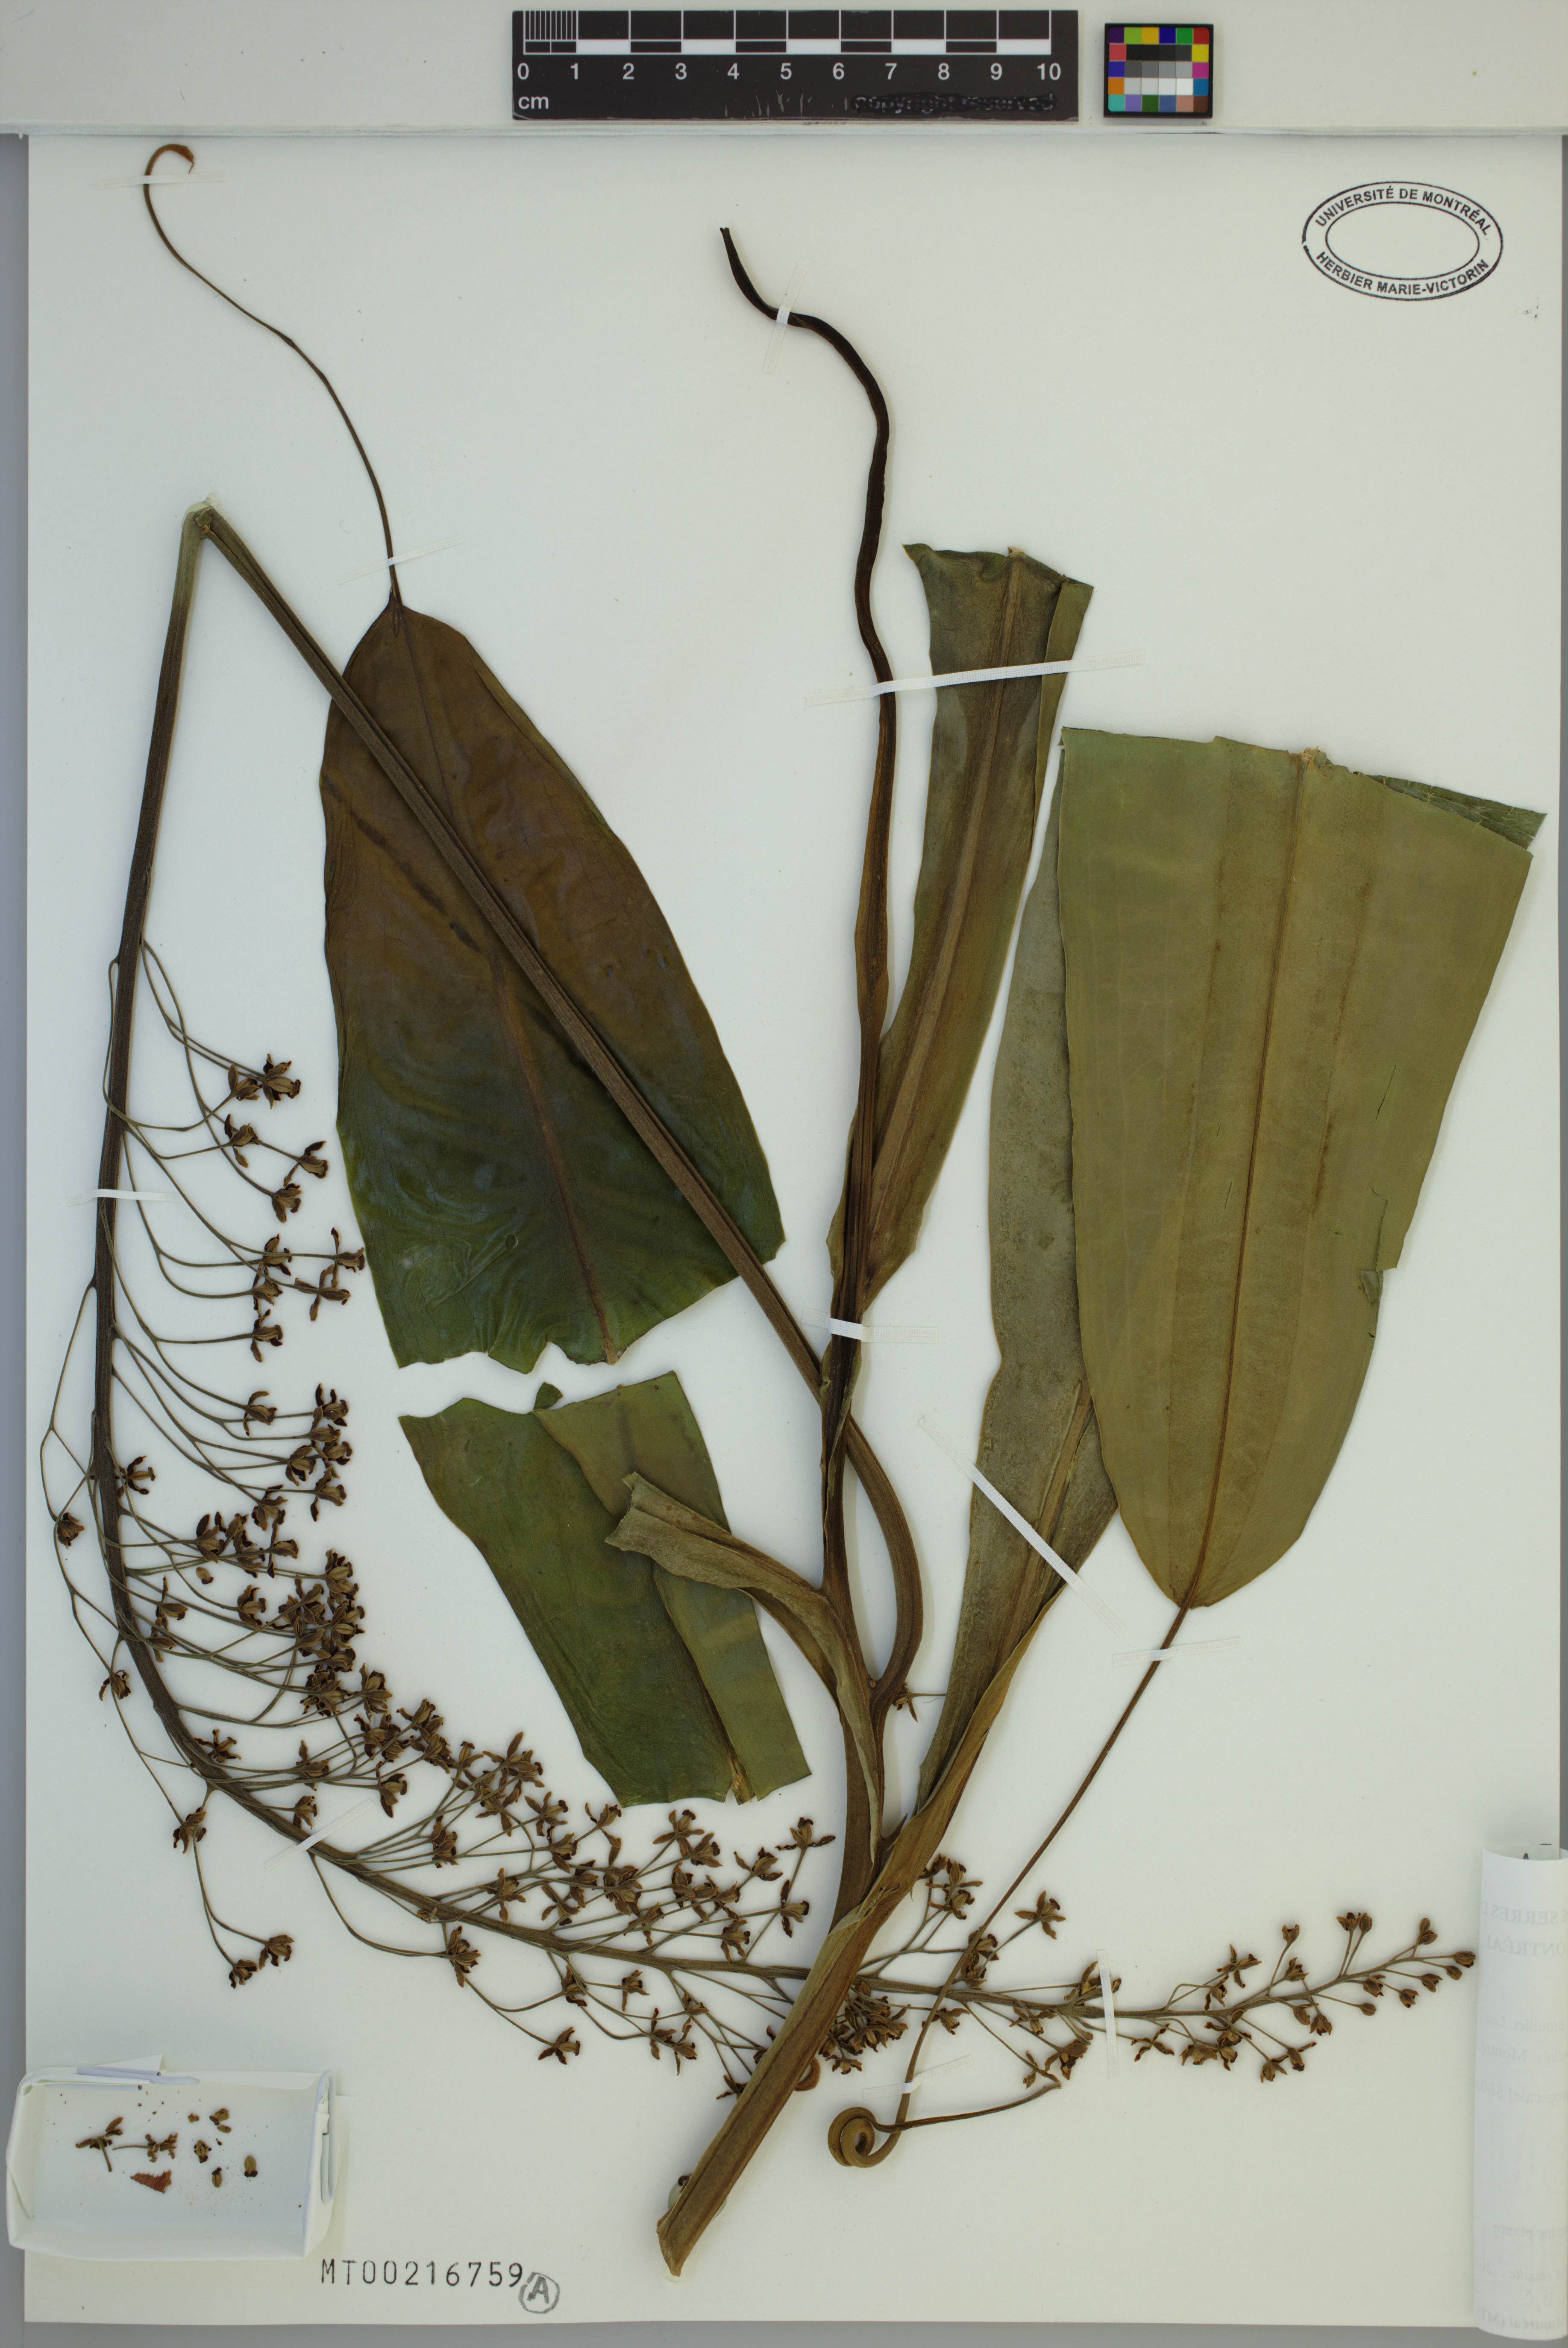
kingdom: Plantae
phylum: Tracheophyta
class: Magnoliopsida
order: Caryophyllales
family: Nepenthaceae
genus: Nepenthes
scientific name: Nepenthes neglecta
